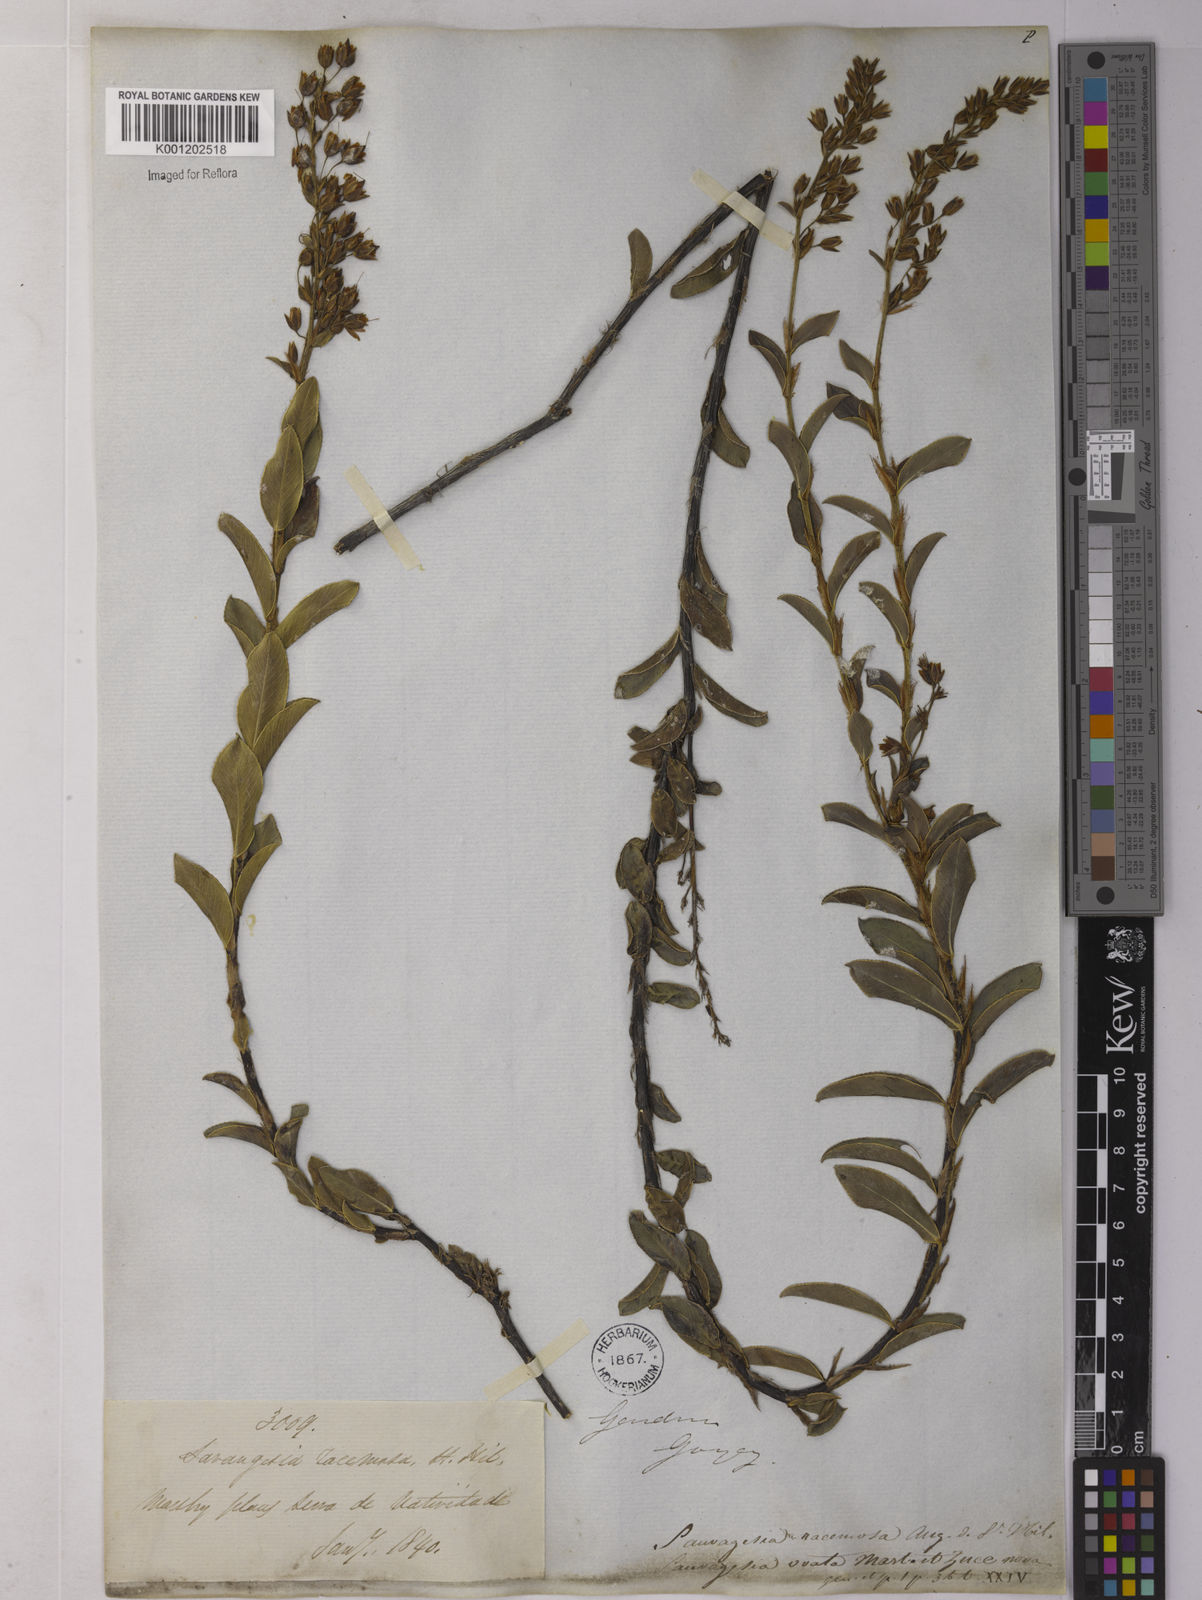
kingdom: Plantae
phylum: Tracheophyta
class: Magnoliopsida
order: Malpighiales
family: Ochnaceae
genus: Sauvagesia
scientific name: Sauvagesia racemosa
